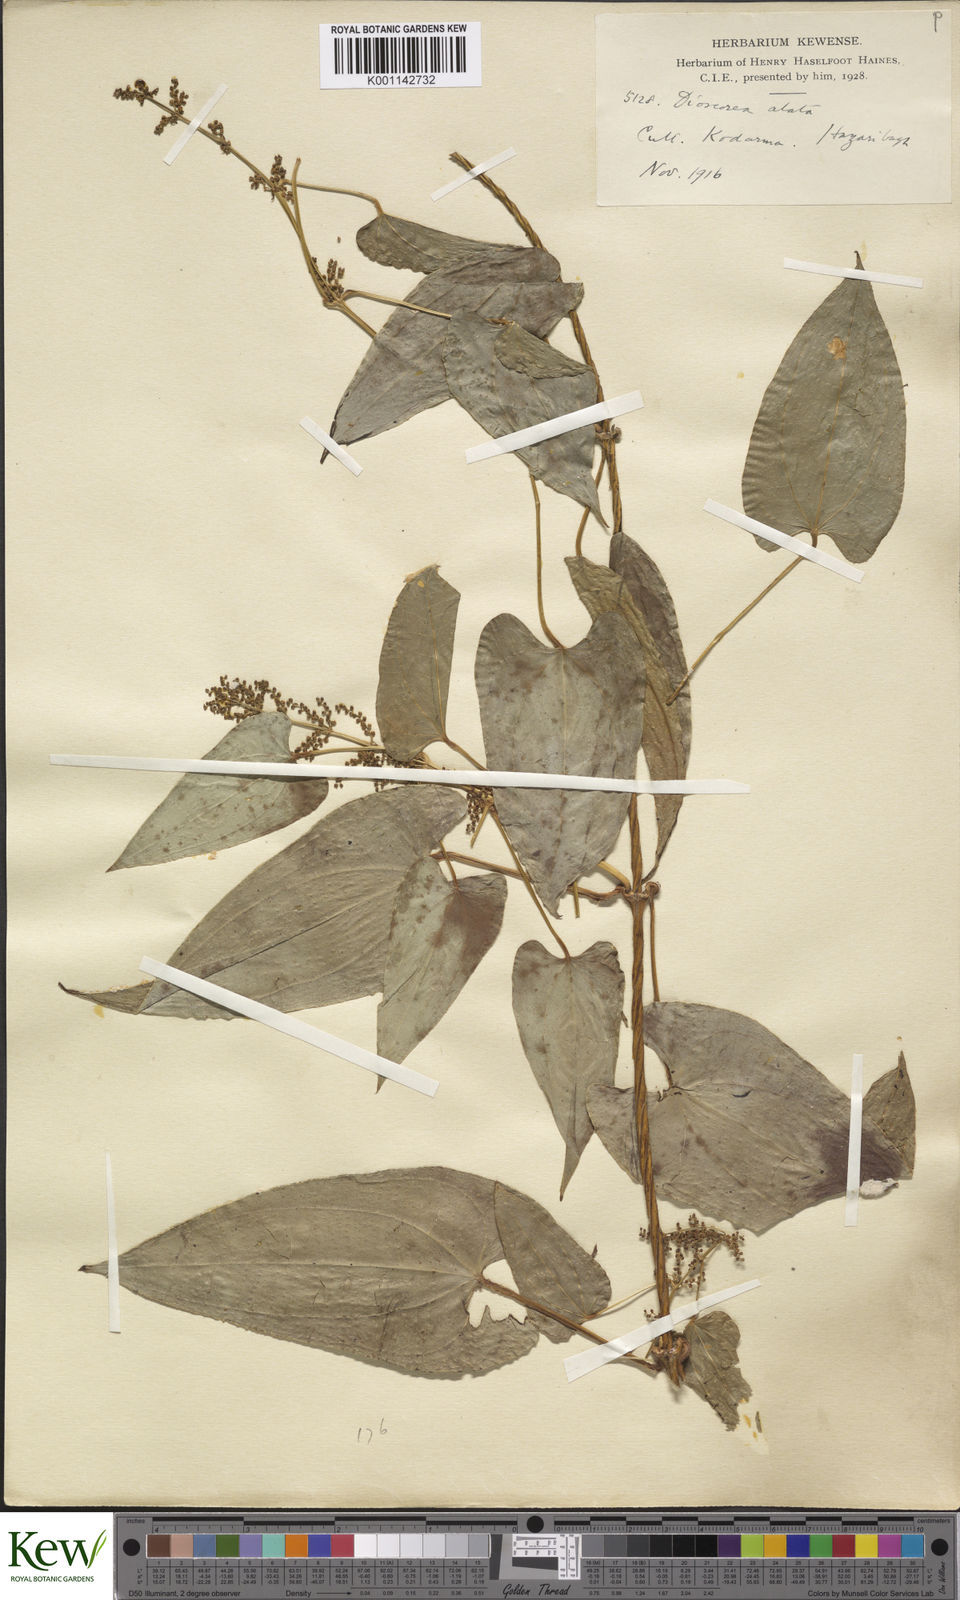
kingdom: Plantae
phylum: Tracheophyta
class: Liliopsida
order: Dioscoreales
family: Dioscoreaceae
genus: Dioscorea
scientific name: Dioscorea alata
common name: Water yam
